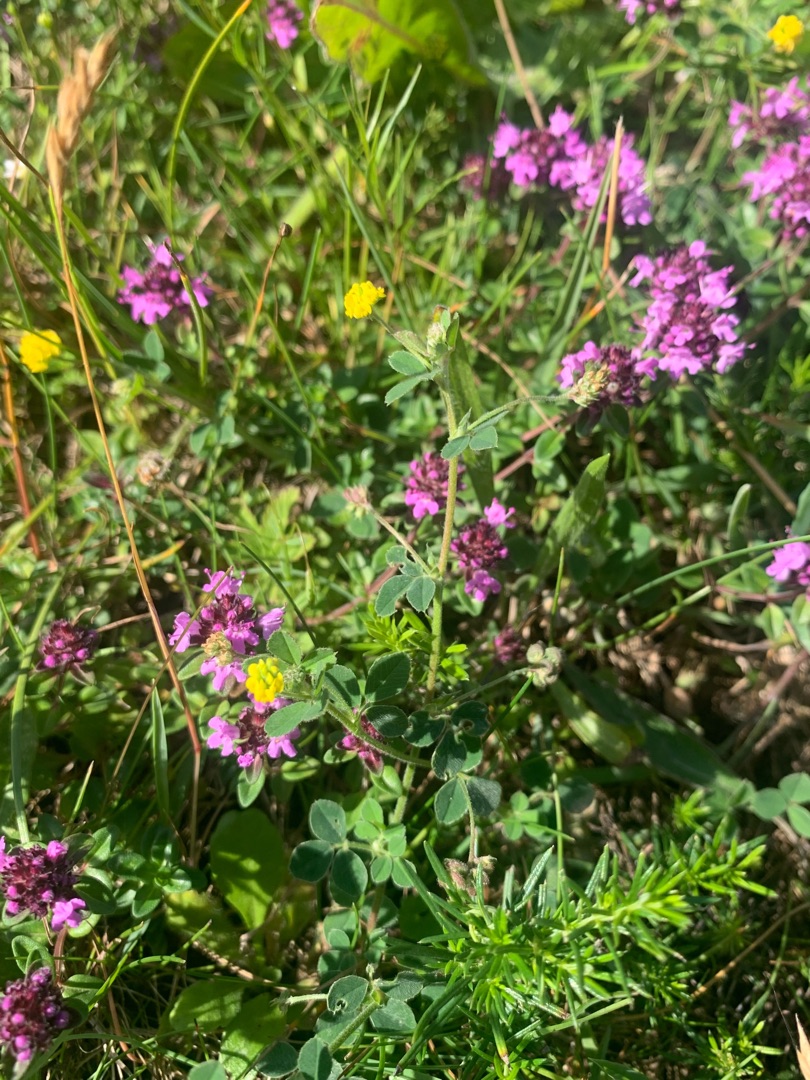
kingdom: Plantae
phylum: Tracheophyta
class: Magnoliopsida
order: Fabales
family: Fabaceae
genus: Medicago
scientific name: Medicago lupulina
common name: Humle-sneglebælg
